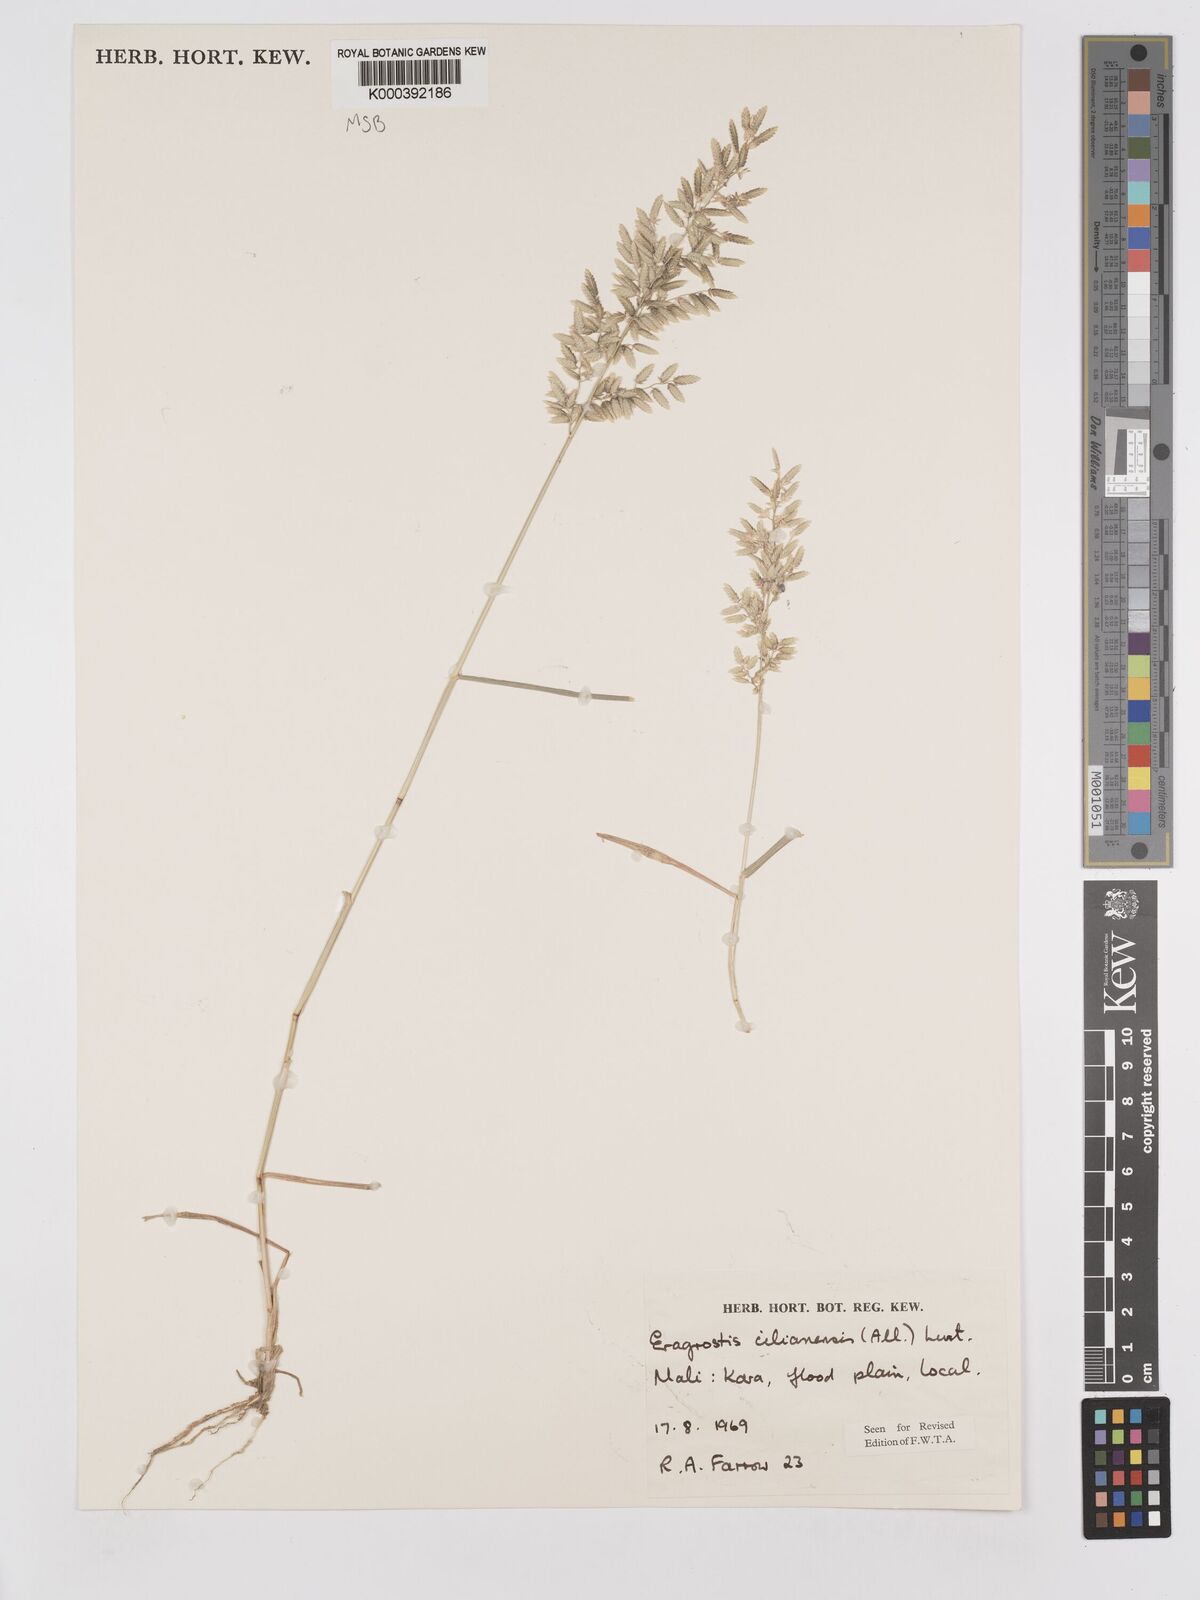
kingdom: Plantae
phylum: Tracheophyta
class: Liliopsida
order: Poales
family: Poaceae
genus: Eragrostis
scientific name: Eragrostis cilianensis
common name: Stinkgrass
